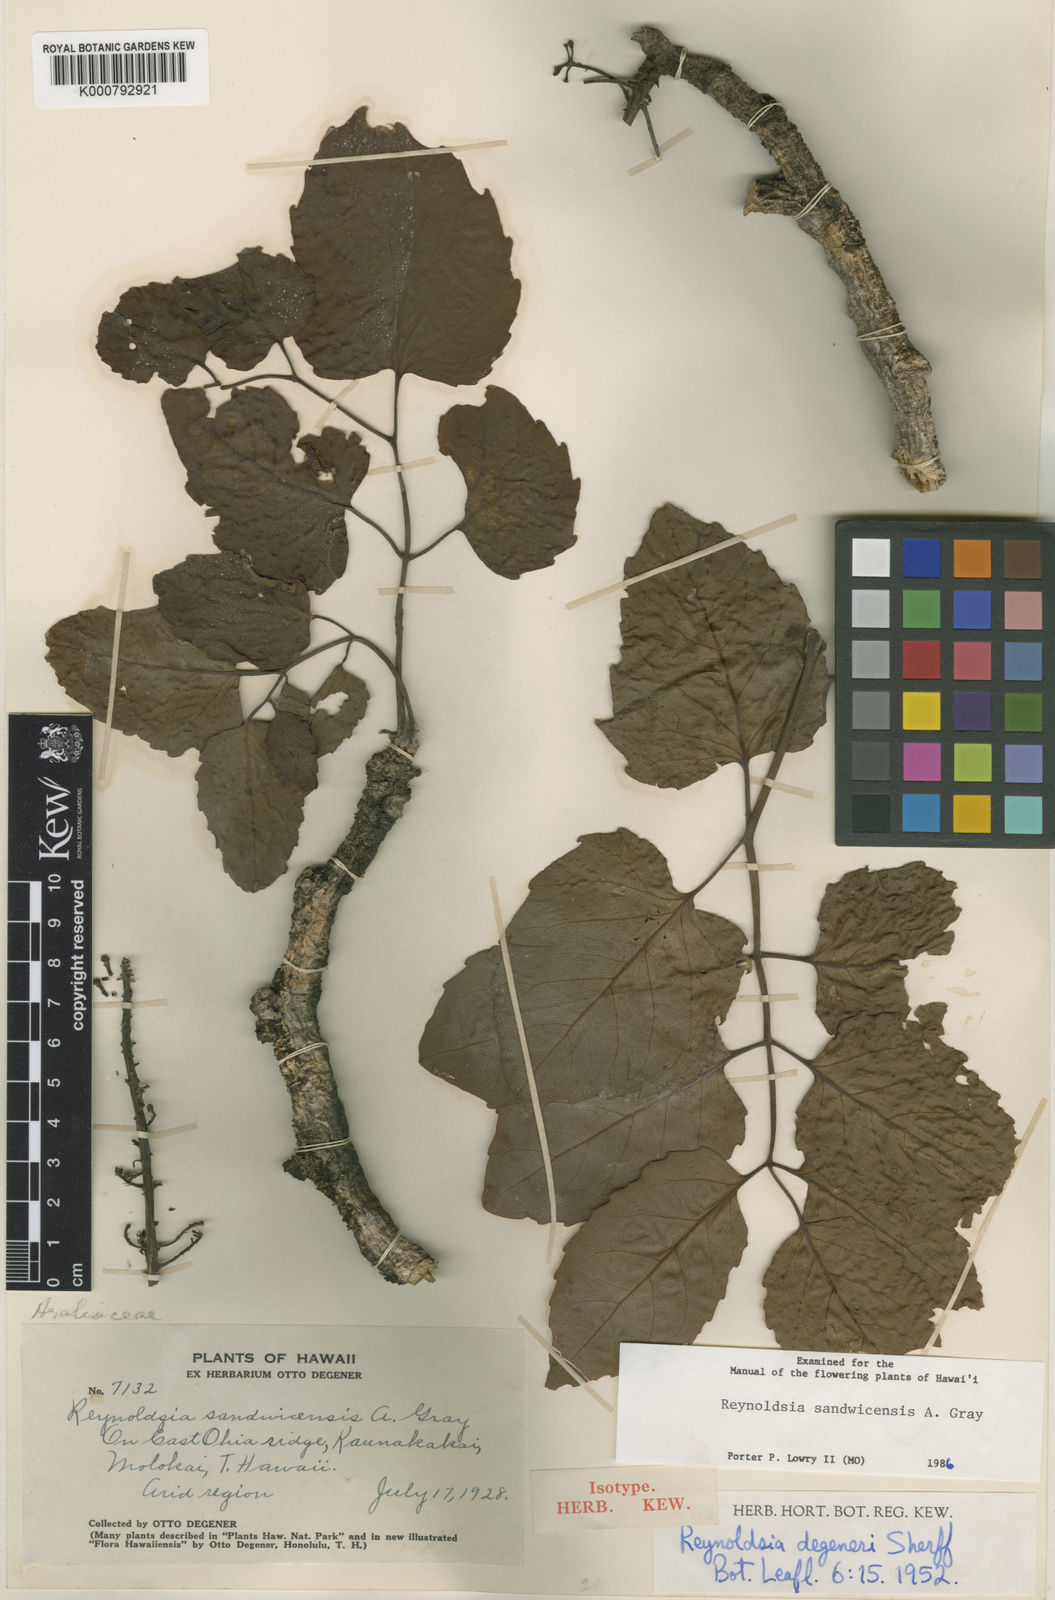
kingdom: Plantae
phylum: Tracheophyta
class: Magnoliopsida
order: Apiales
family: Araliaceae
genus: Polyscias
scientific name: Polyscias sandwicensis
